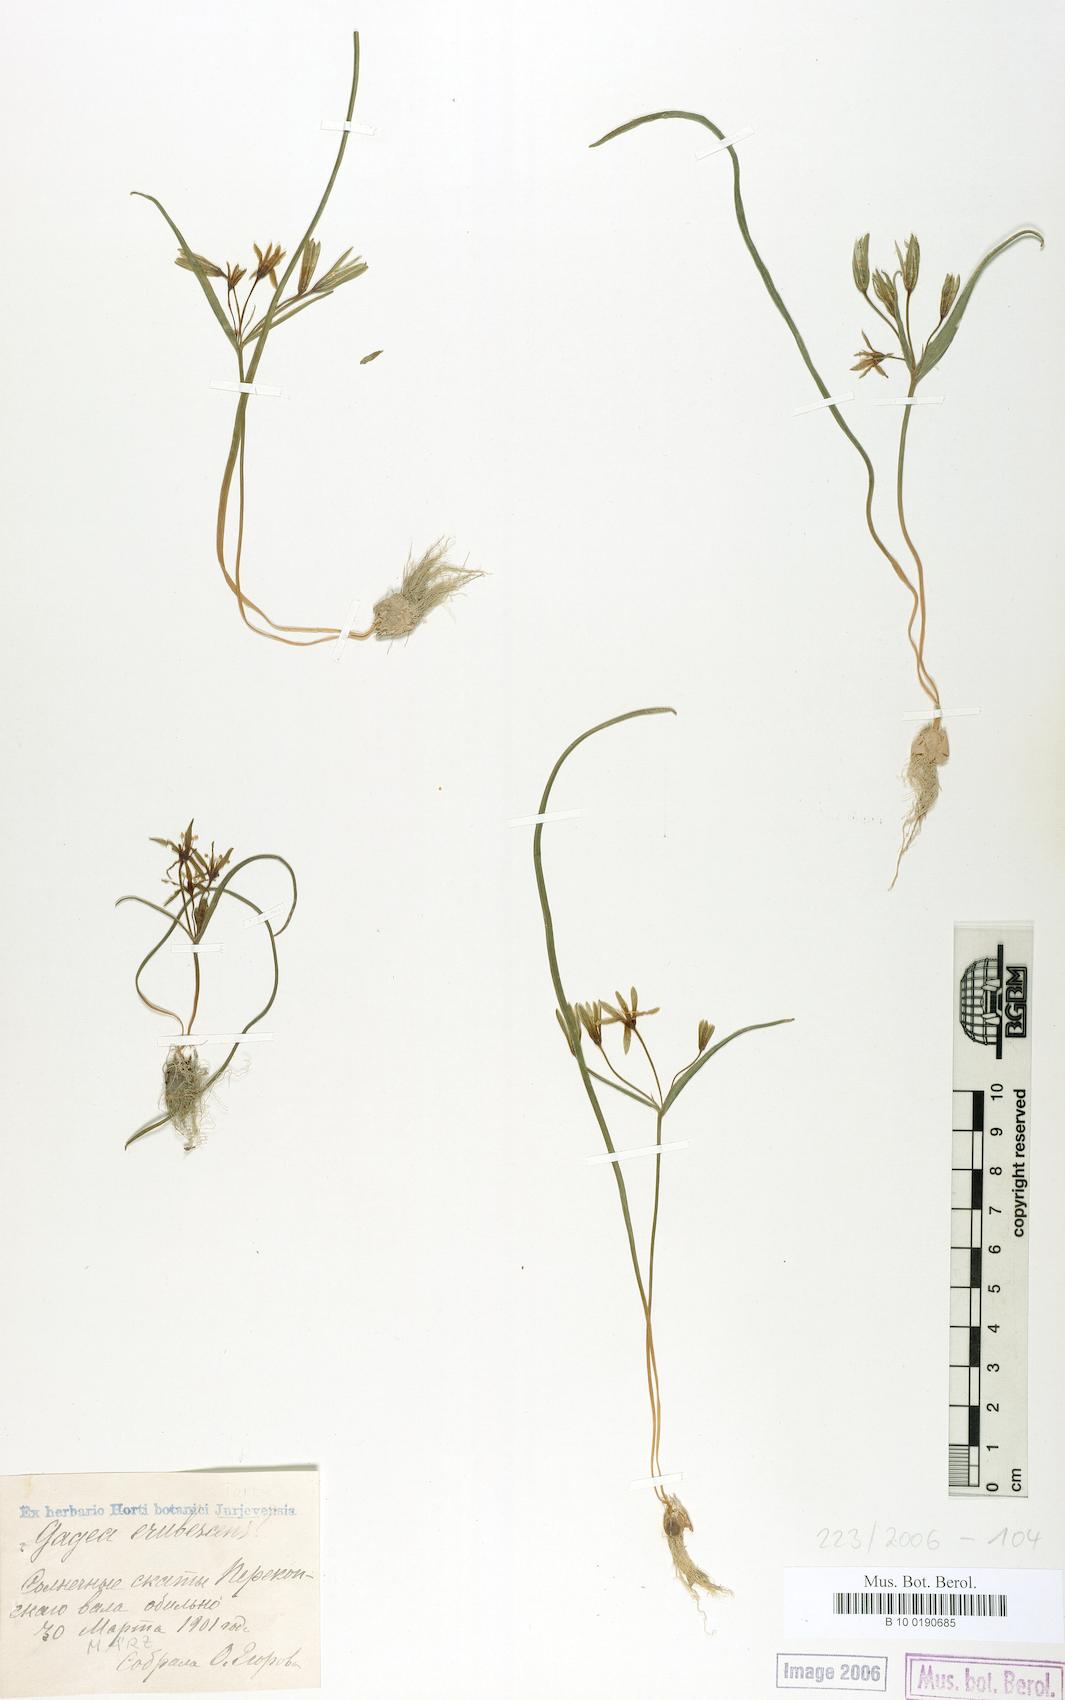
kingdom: Plantae
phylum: Tracheophyta
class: Liliopsida
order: Liliales
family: Liliaceae
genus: Gagea
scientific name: Gagea fragifera
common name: Lily
